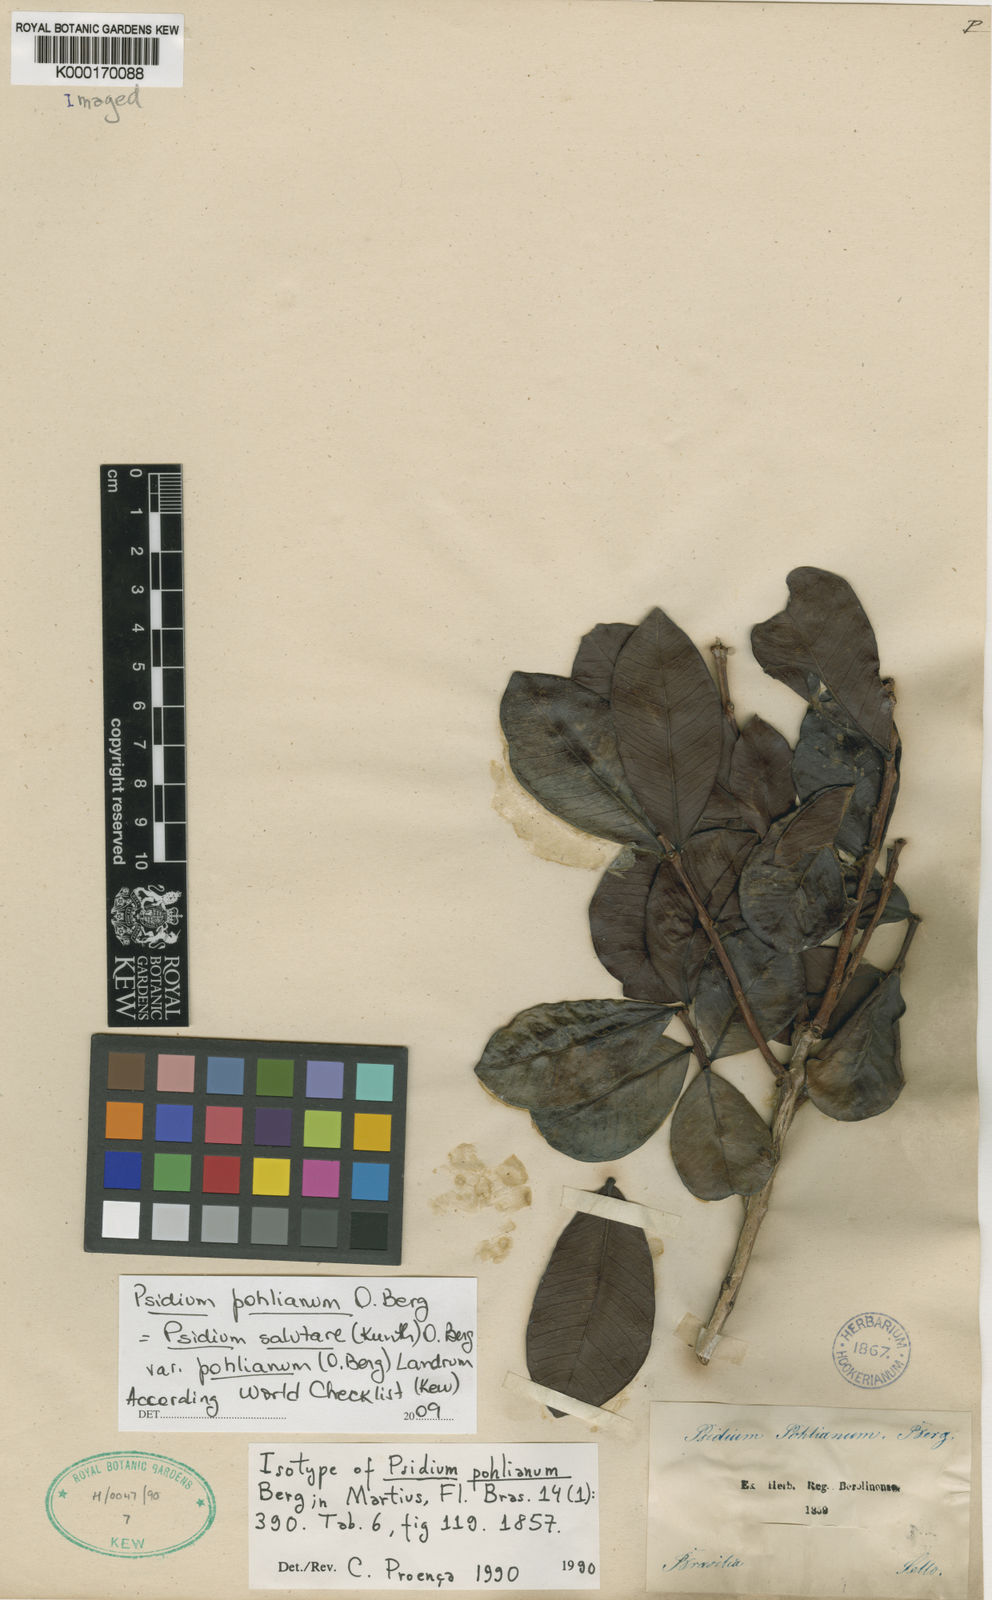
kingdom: Plantae
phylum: Tracheophyta
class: Magnoliopsida
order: Myrtales
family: Myrtaceae
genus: Psidium
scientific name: Psidium salutare
